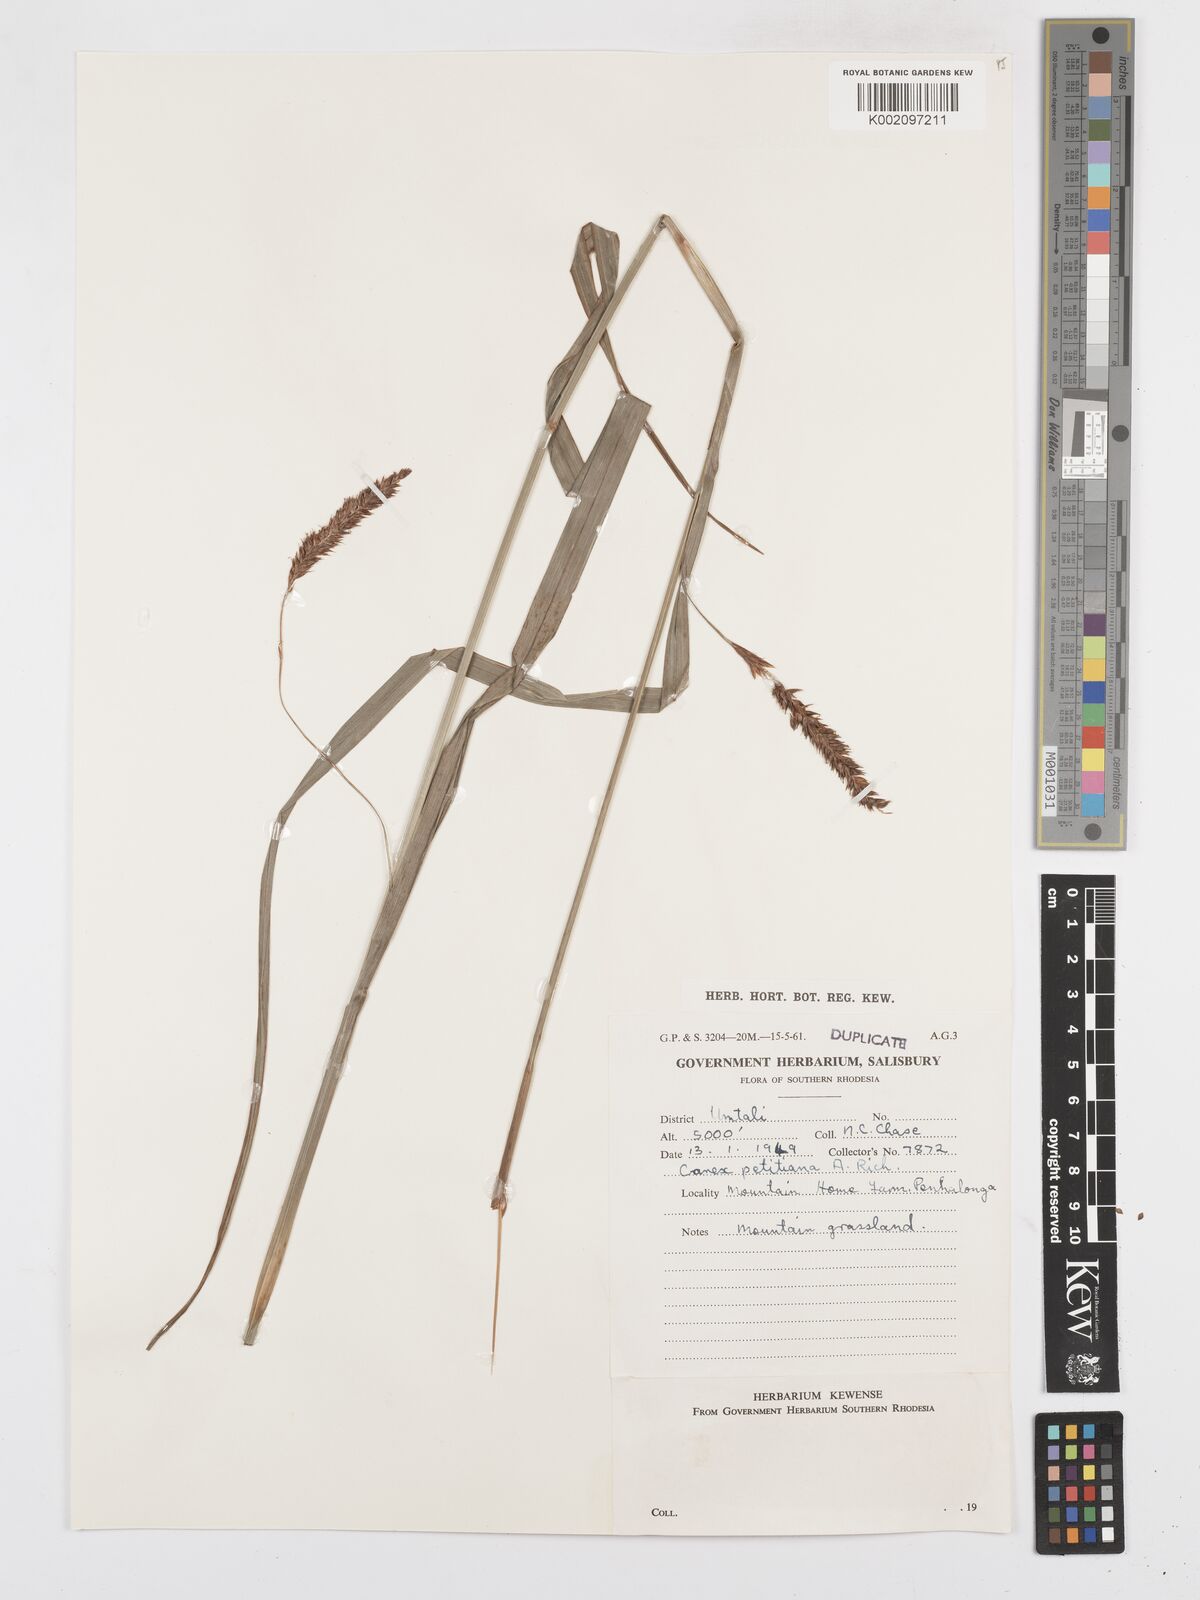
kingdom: Plantae
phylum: Tracheophyta
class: Liliopsida
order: Poales
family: Cyperaceae
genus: Carex
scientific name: Carex
